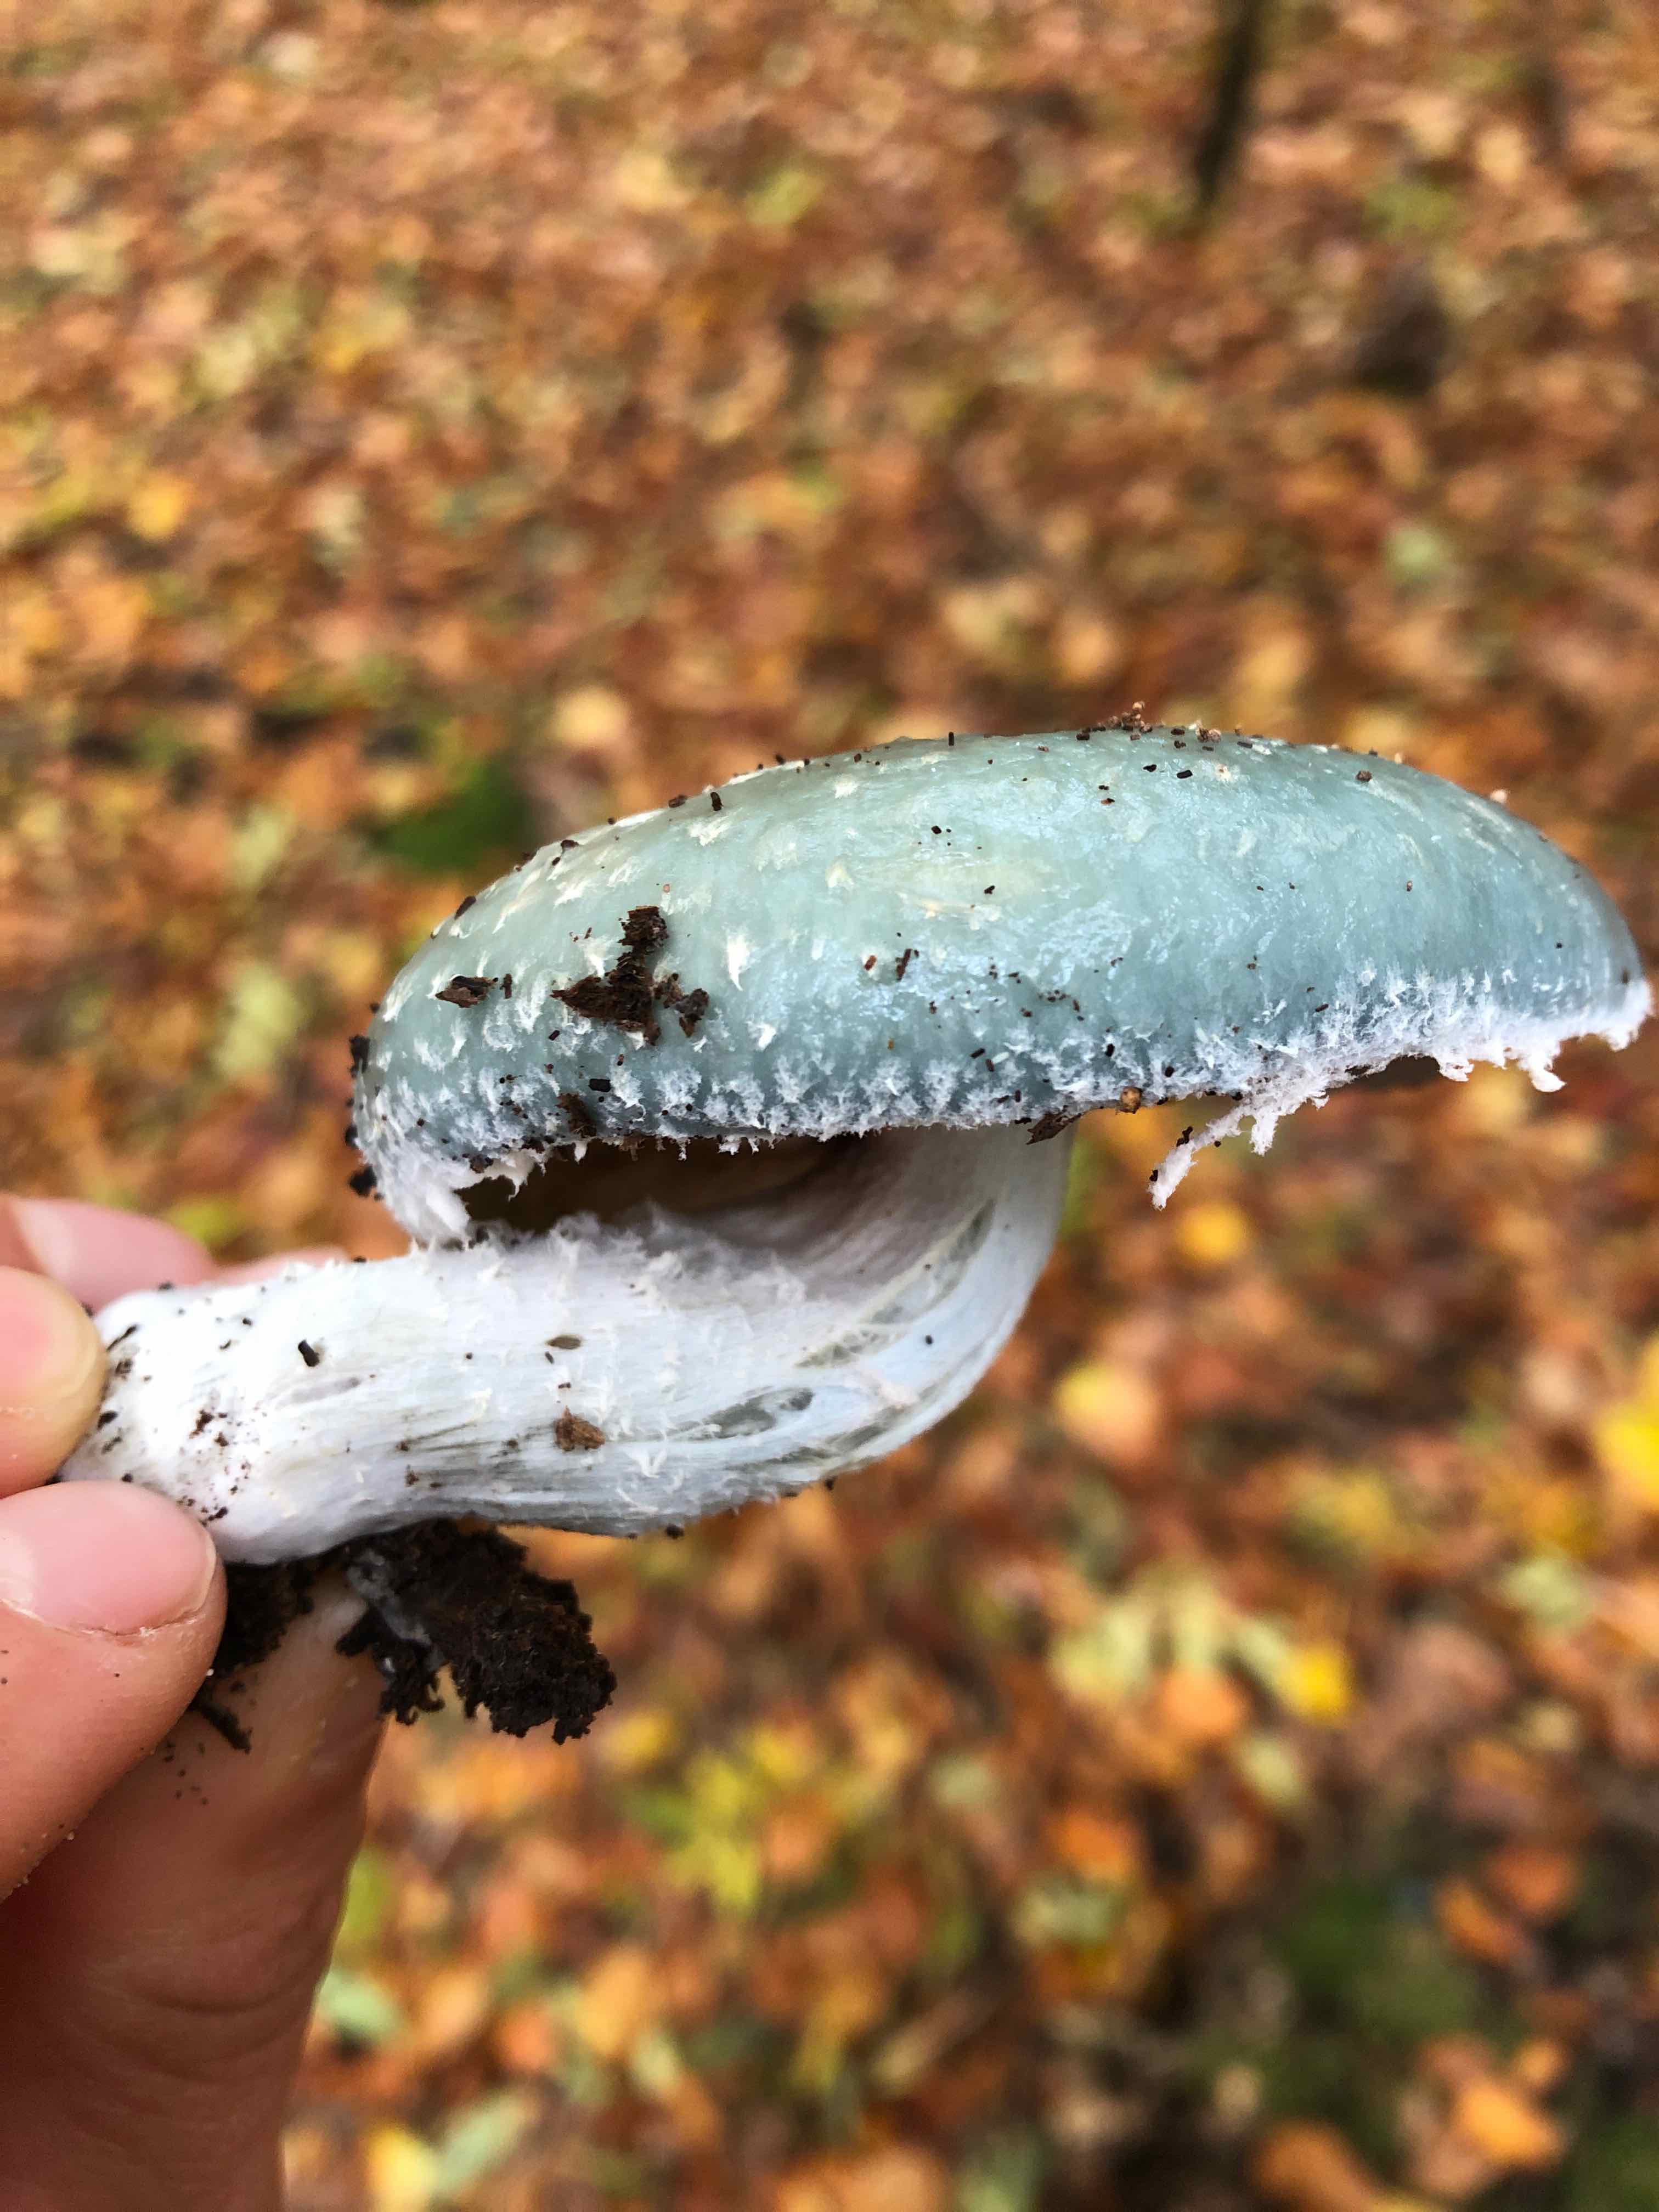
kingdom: Fungi
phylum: Basidiomycota
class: Agaricomycetes
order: Agaricales
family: Strophariaceae
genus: Stropharia
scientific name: Stropharia cyanea
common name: blågrøn bredblad
